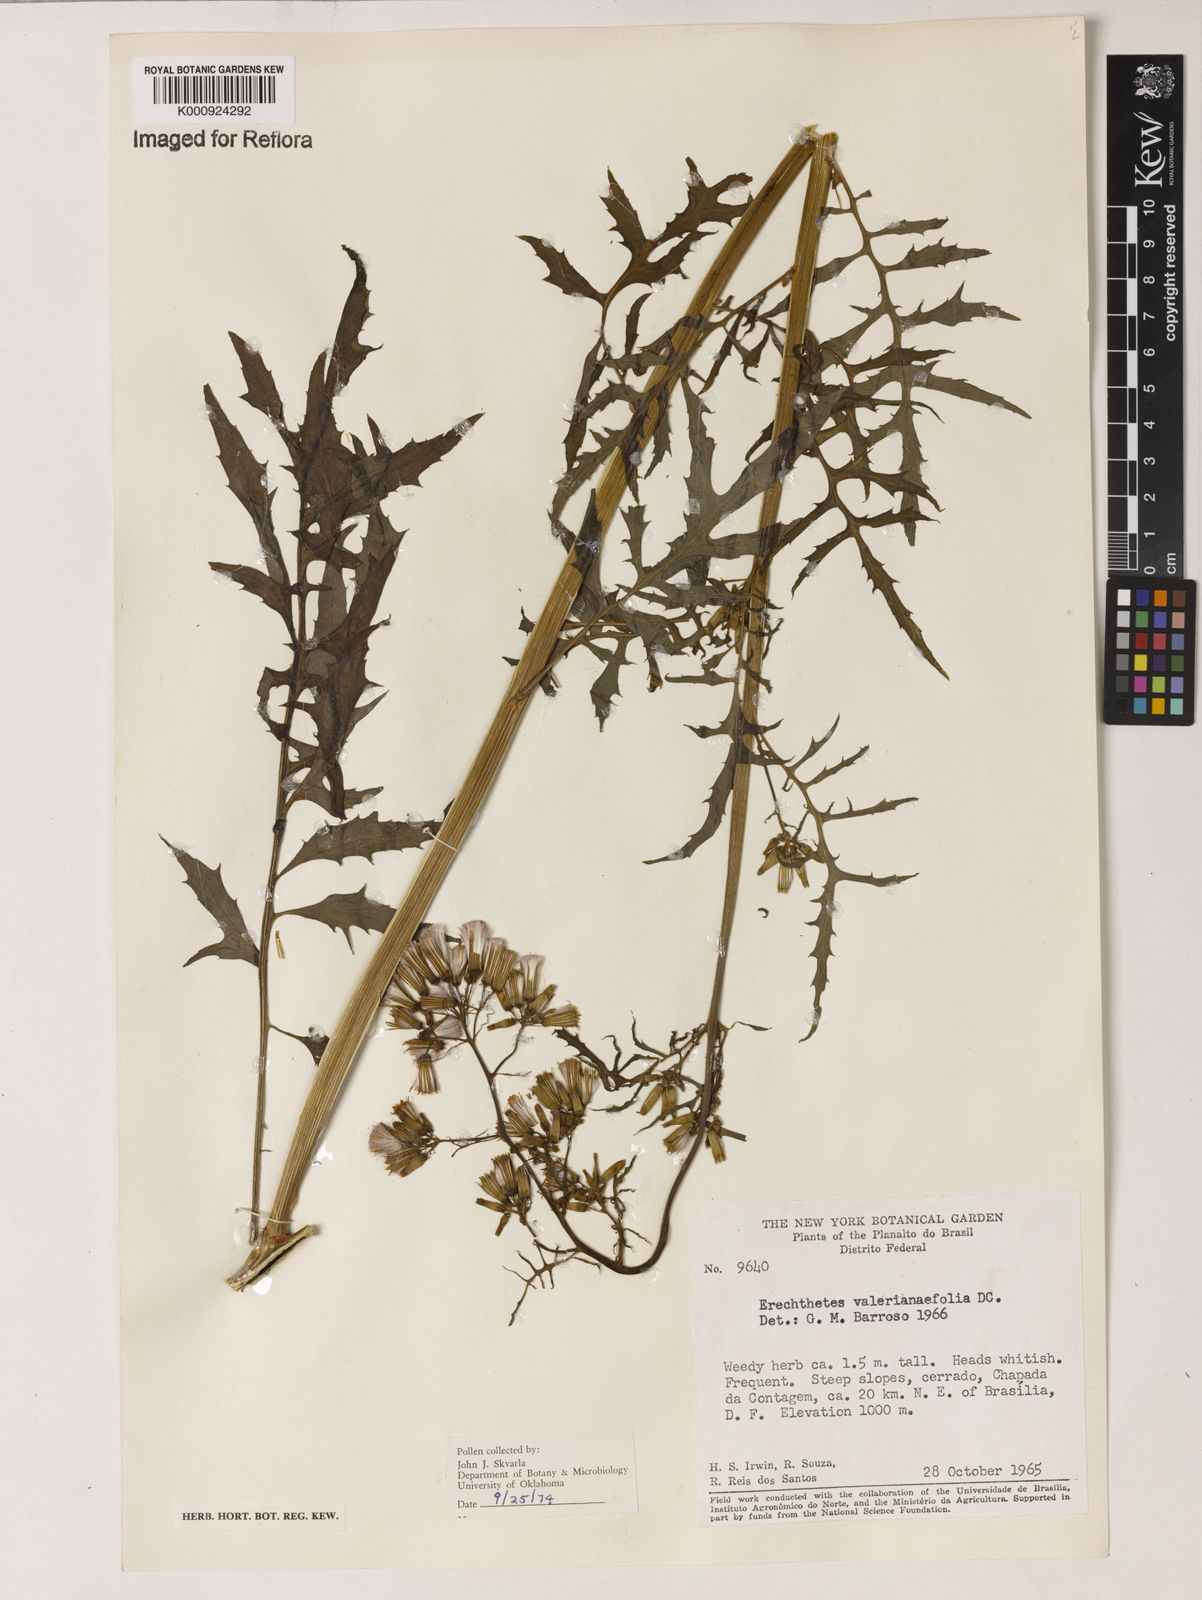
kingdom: Plantae
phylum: Tracheophyta
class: Magnoliopsida
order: Asterales
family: Asteraceae
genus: Erechtites
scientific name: Erechtites valerianifolius
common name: Tropical burnweed
